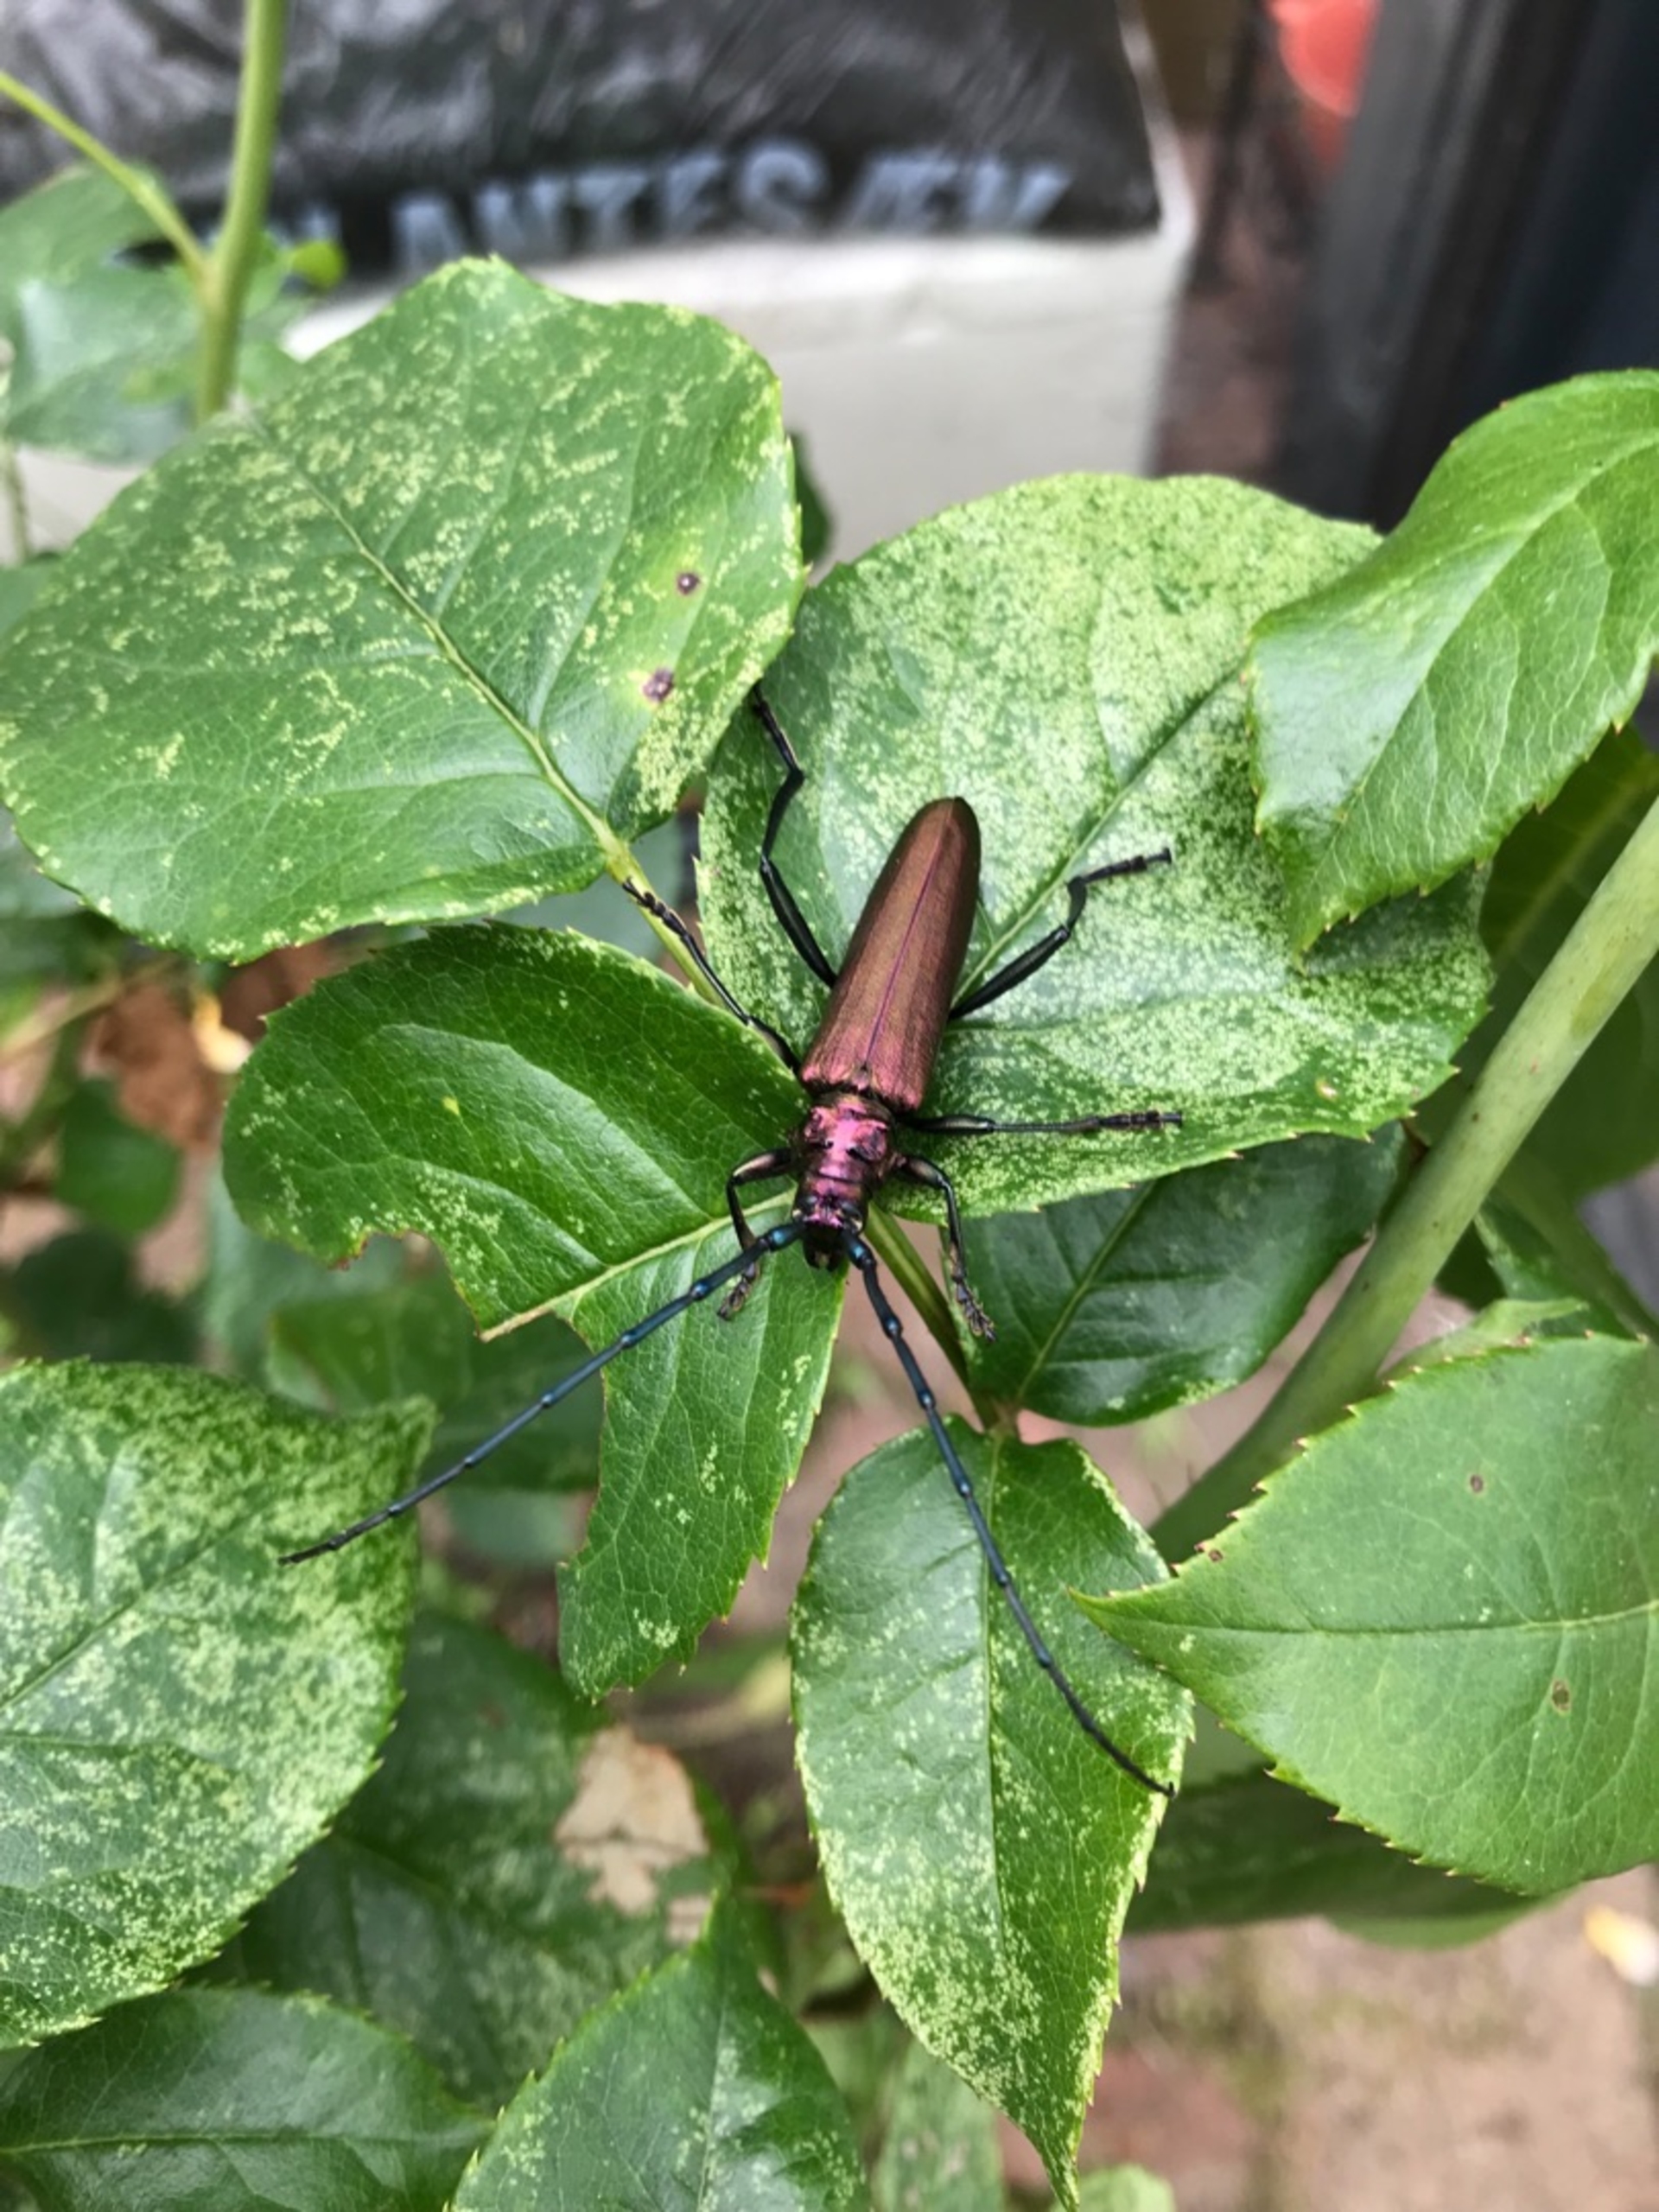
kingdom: Animalia
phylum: Arthropoda
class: Insecta
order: Coleoptera
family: Cerambycidae
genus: Aromia
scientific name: Aromia moschata
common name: Moskusbuk
